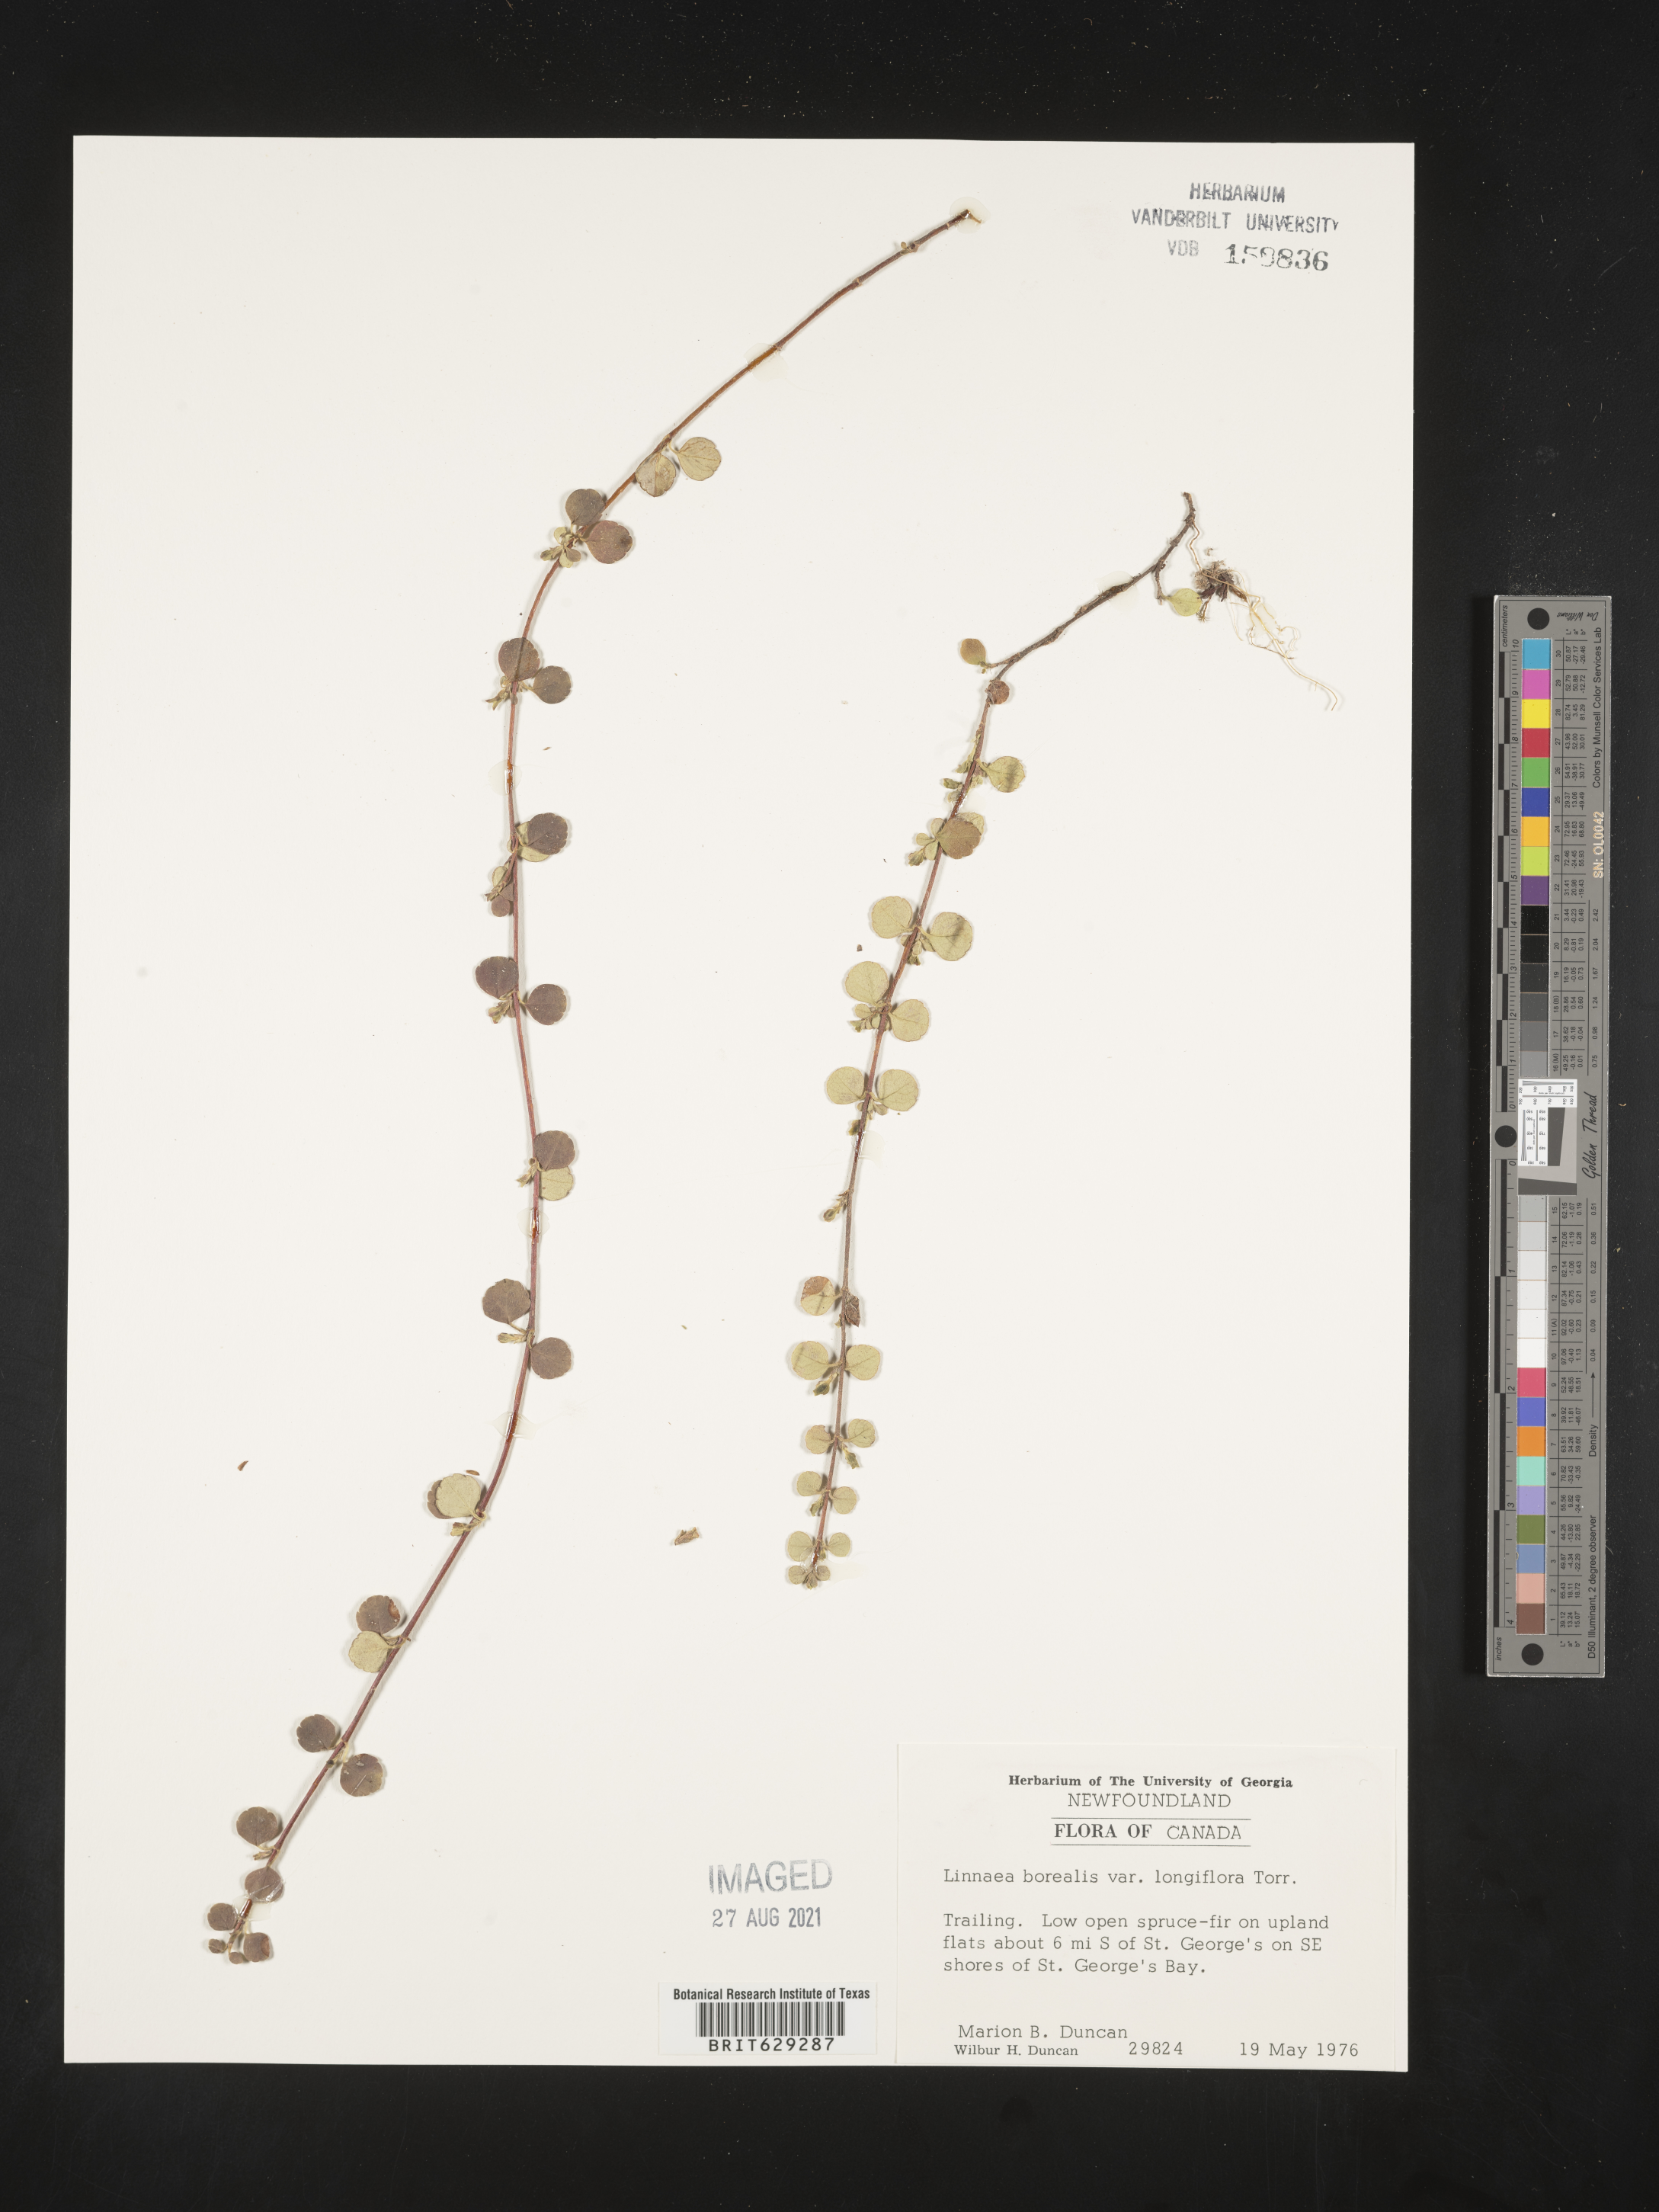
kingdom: Plantae
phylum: Tracheophyta
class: Magnoliopsida
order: Dipsacales
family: Caprifoliaceae
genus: Linnaea
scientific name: Linnaea borealis
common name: Twinflower
